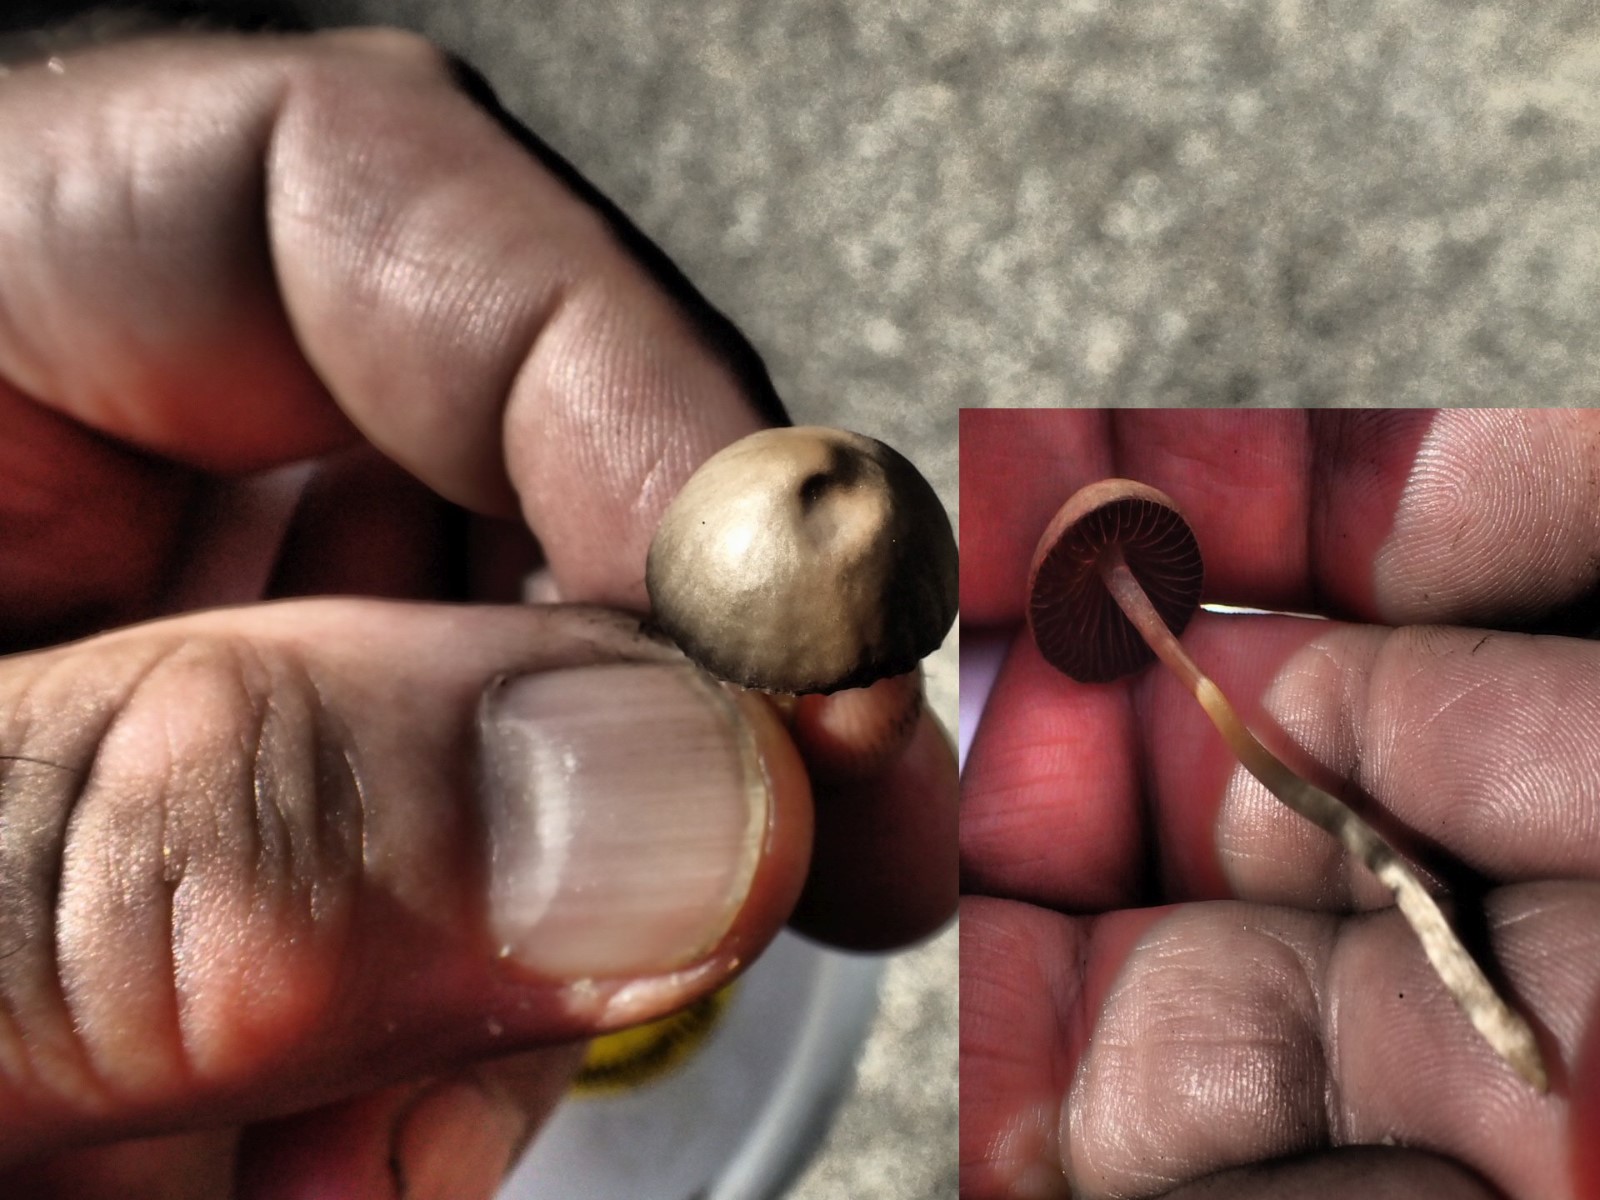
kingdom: Fungi
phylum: Basidiomycota
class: Agaricomycetes
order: Agaricales
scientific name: Agaricales
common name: champignonordenen
